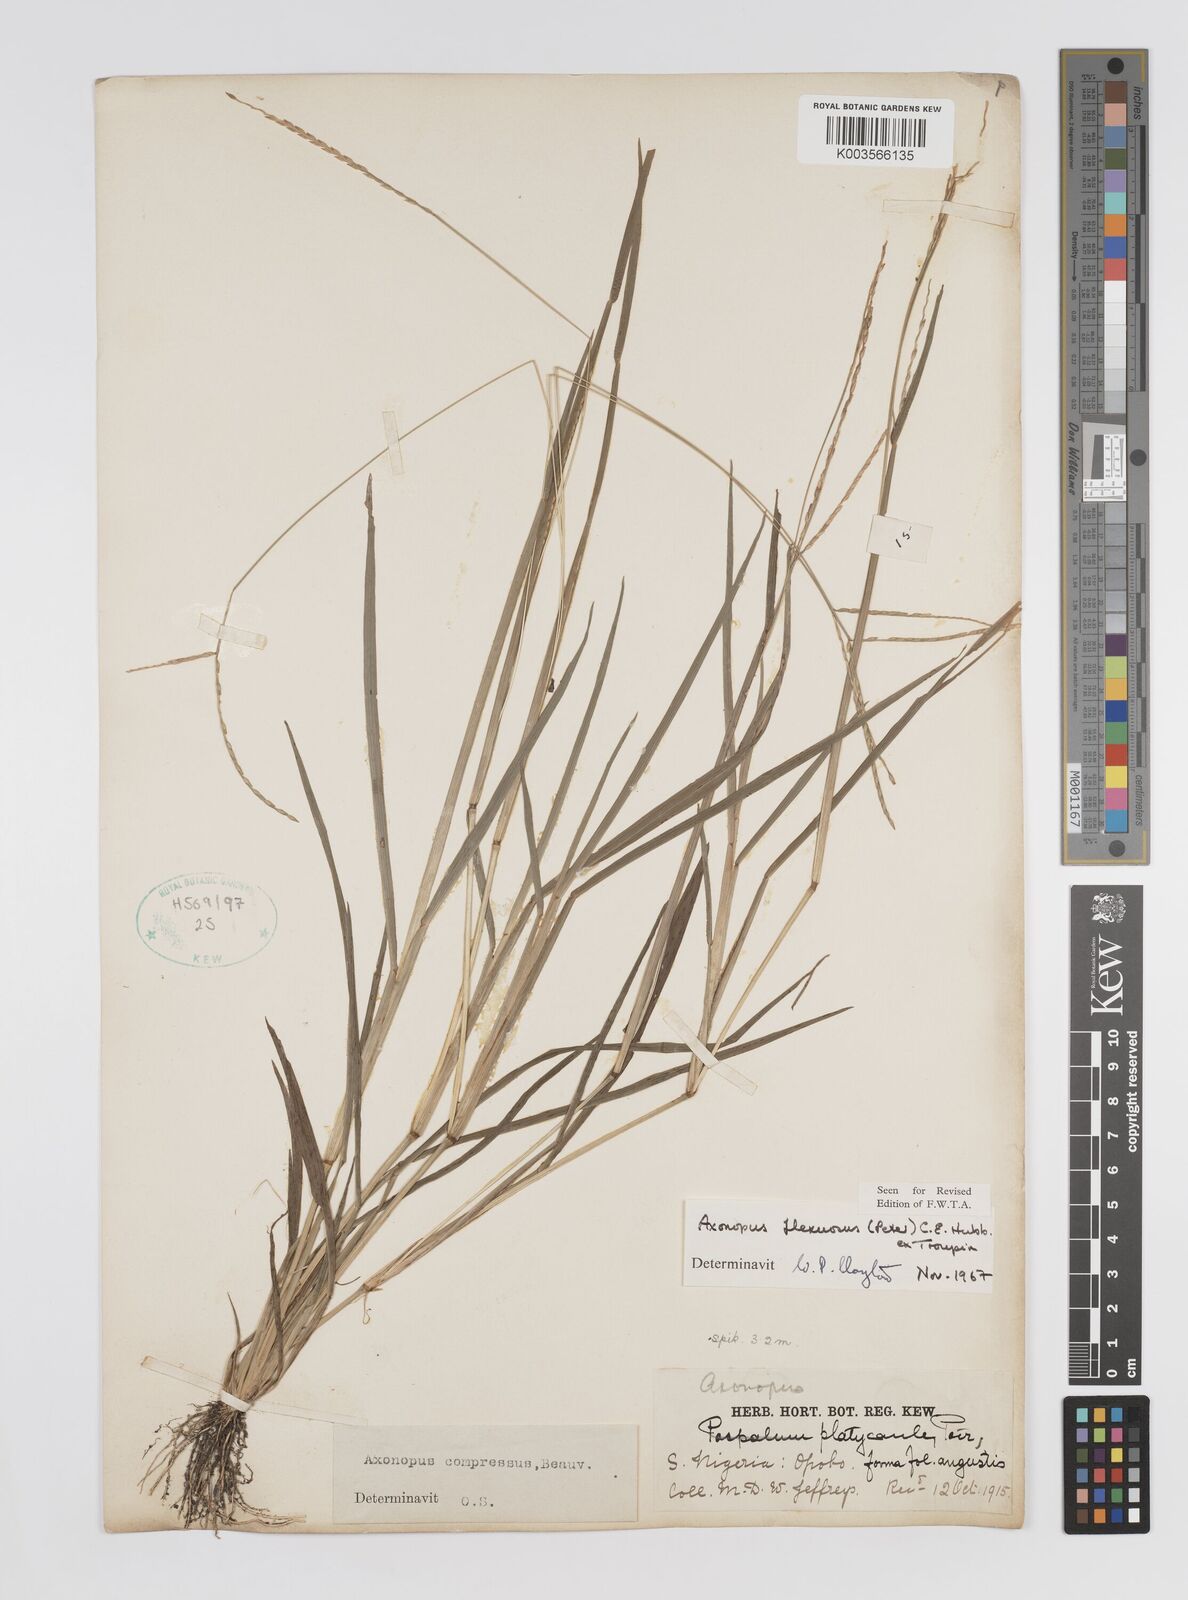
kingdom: Plantae
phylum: Tracheophyta
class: Liliopsida
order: Poales
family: Poaceae
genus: Axonopus
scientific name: Axonopus flexuosus
